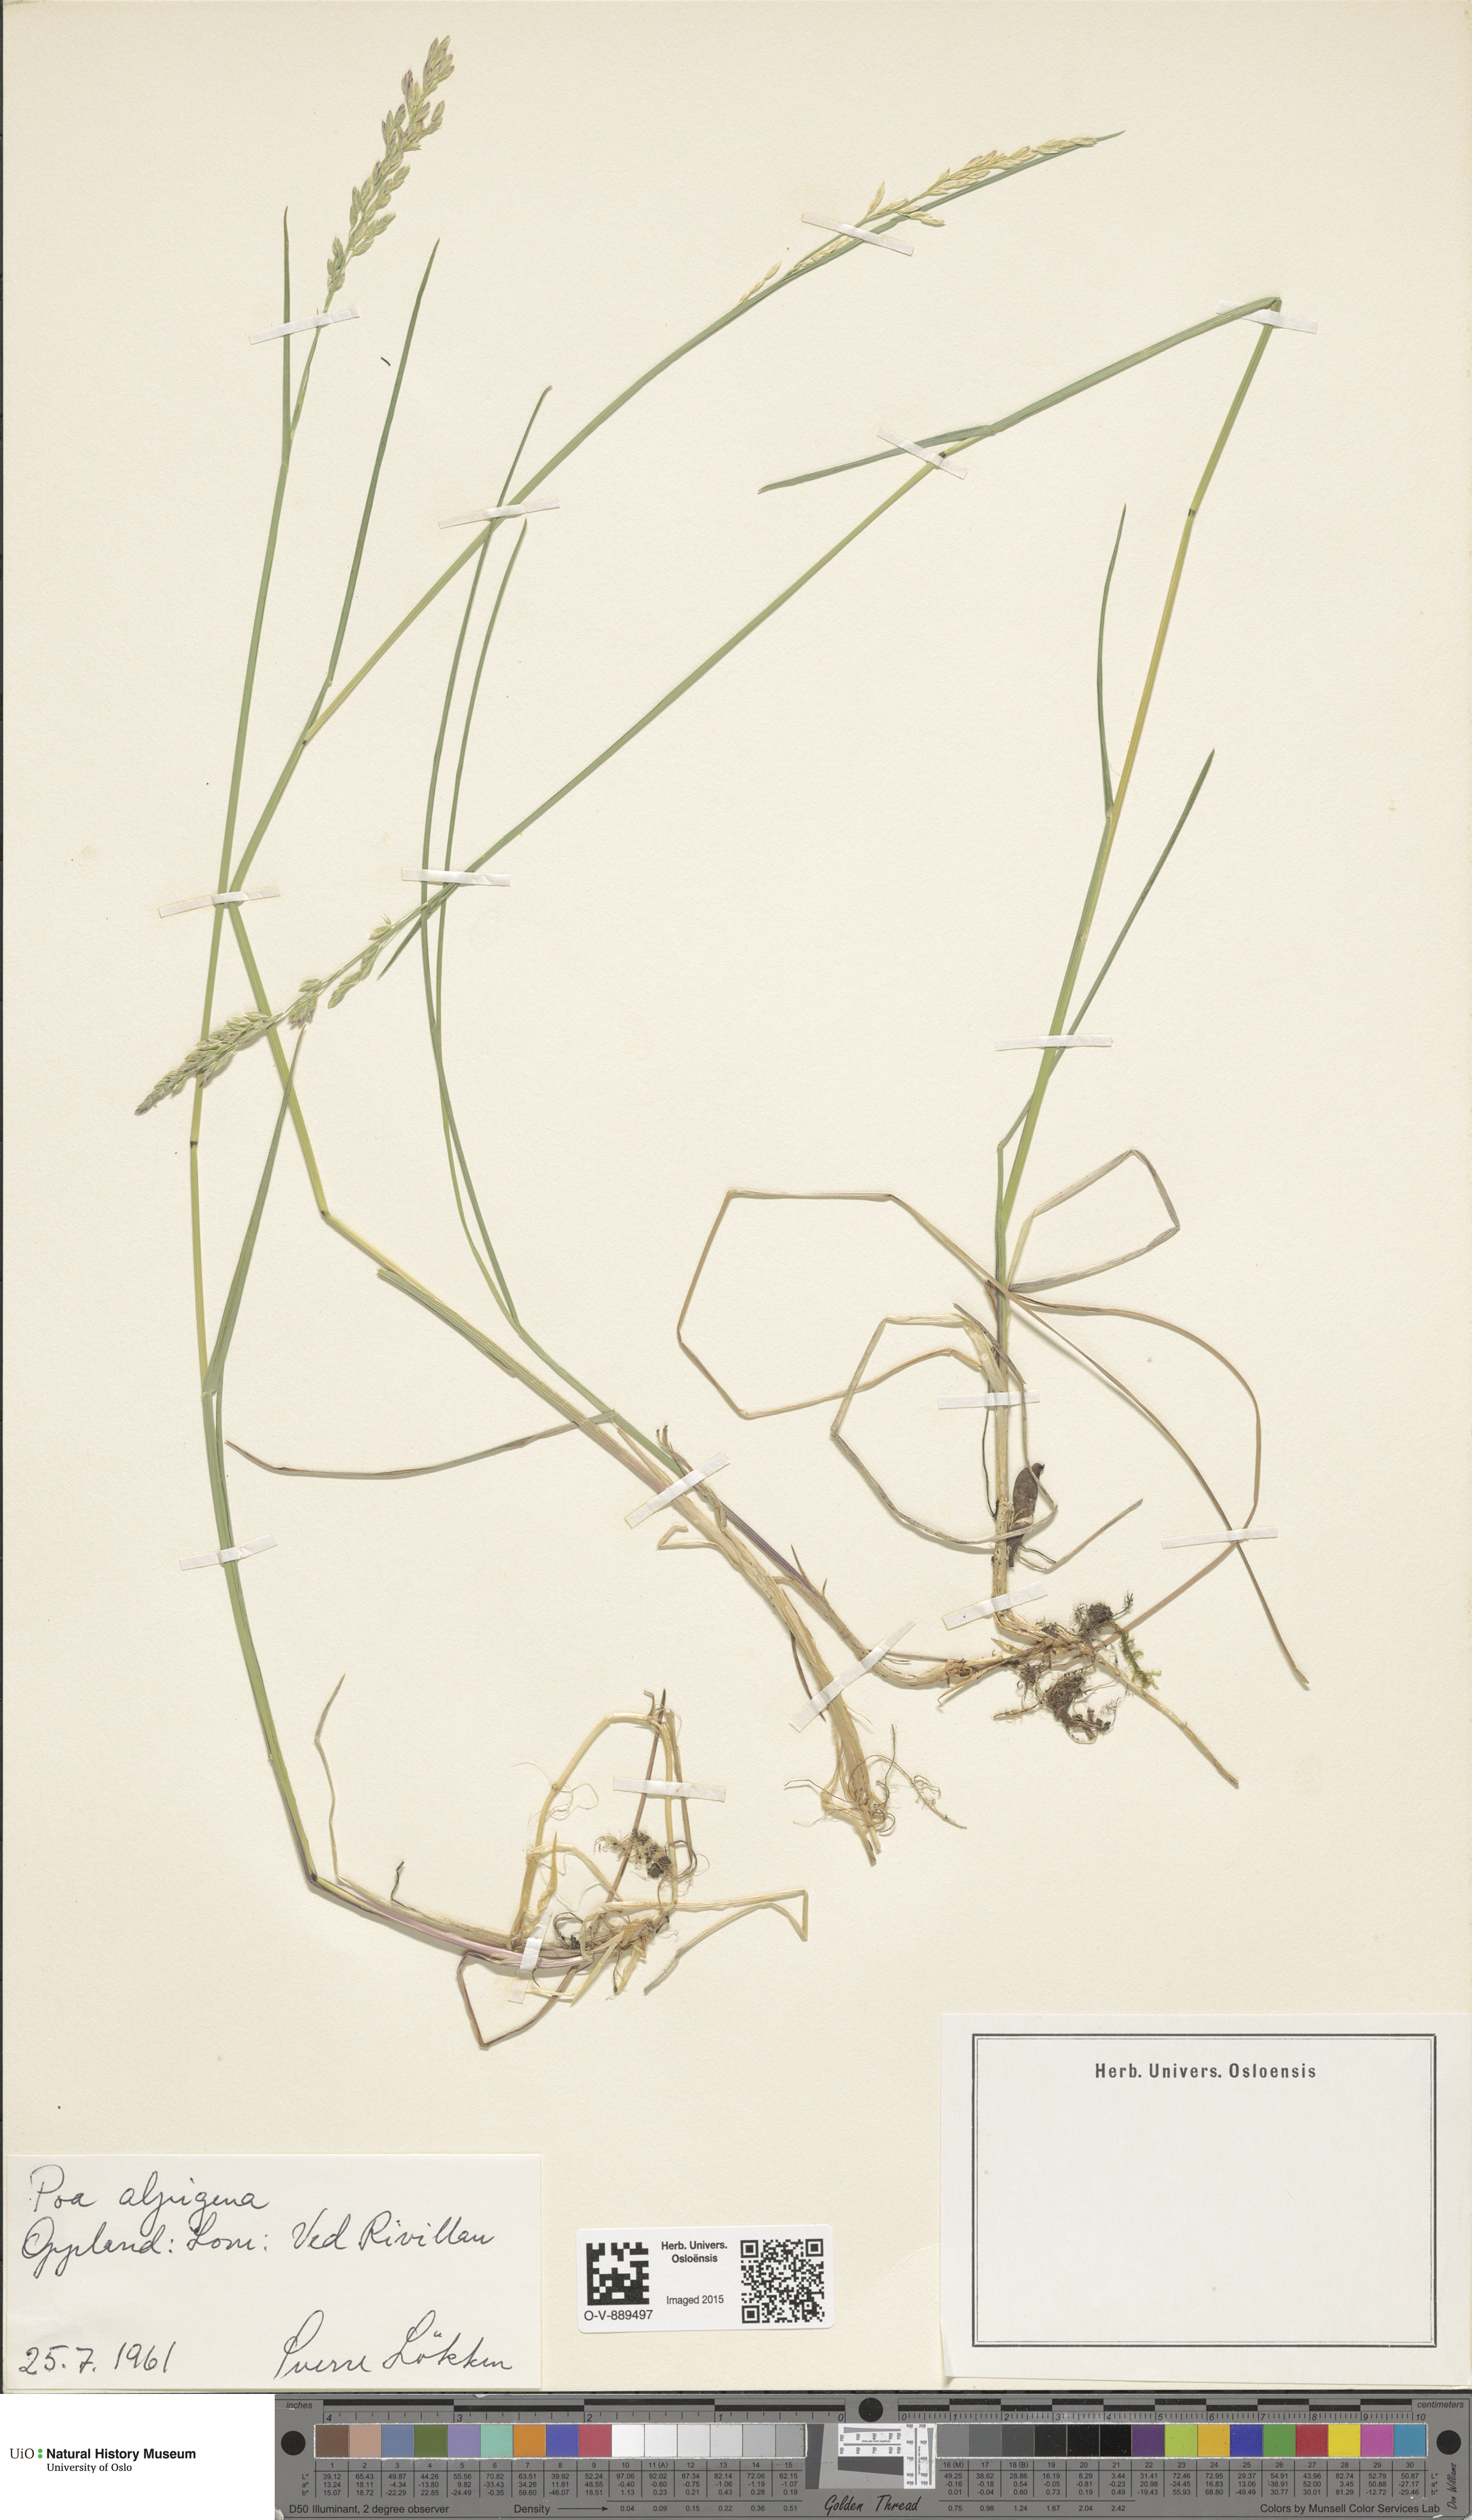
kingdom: Plantae
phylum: Tracheophyta
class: Liliopsida
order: Poales
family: Poaceae
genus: Poa
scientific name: Poa alpigena
